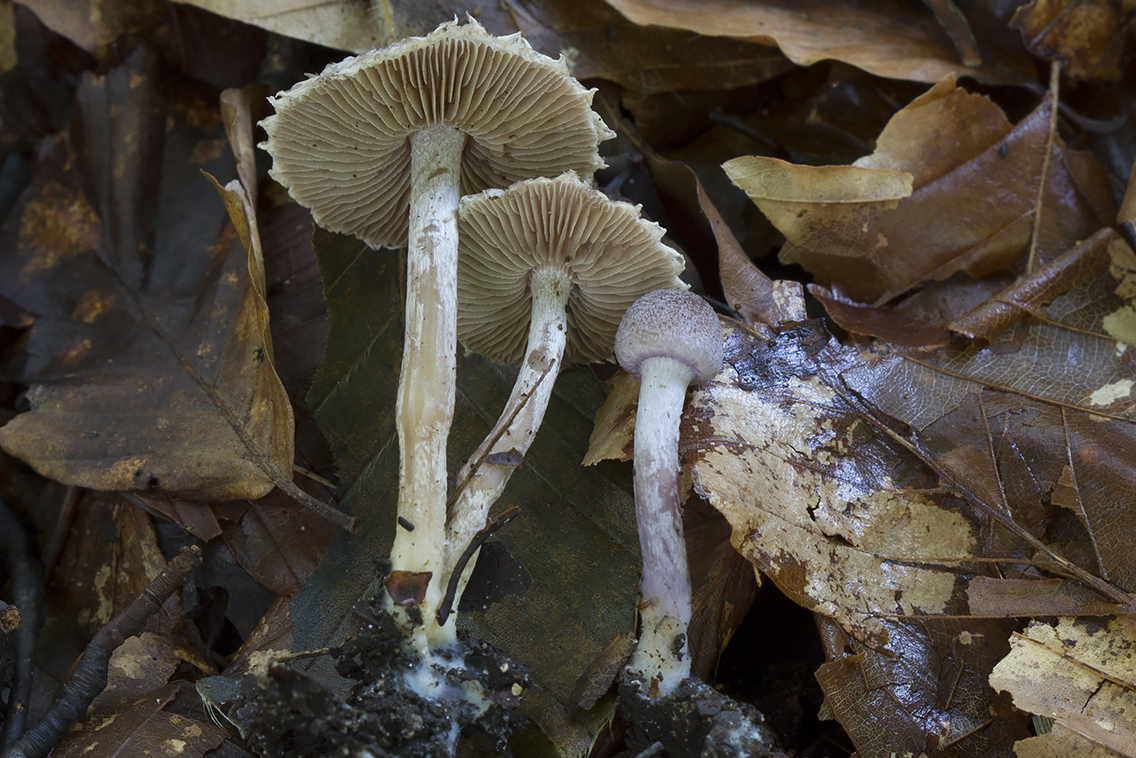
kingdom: Fungi
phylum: Basidiomycota
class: Agaricomycetes
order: Agaricales
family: Inocybaceae
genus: Inocybe
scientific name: Inocybe griseolilacina
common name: lillagrå trævlhat
